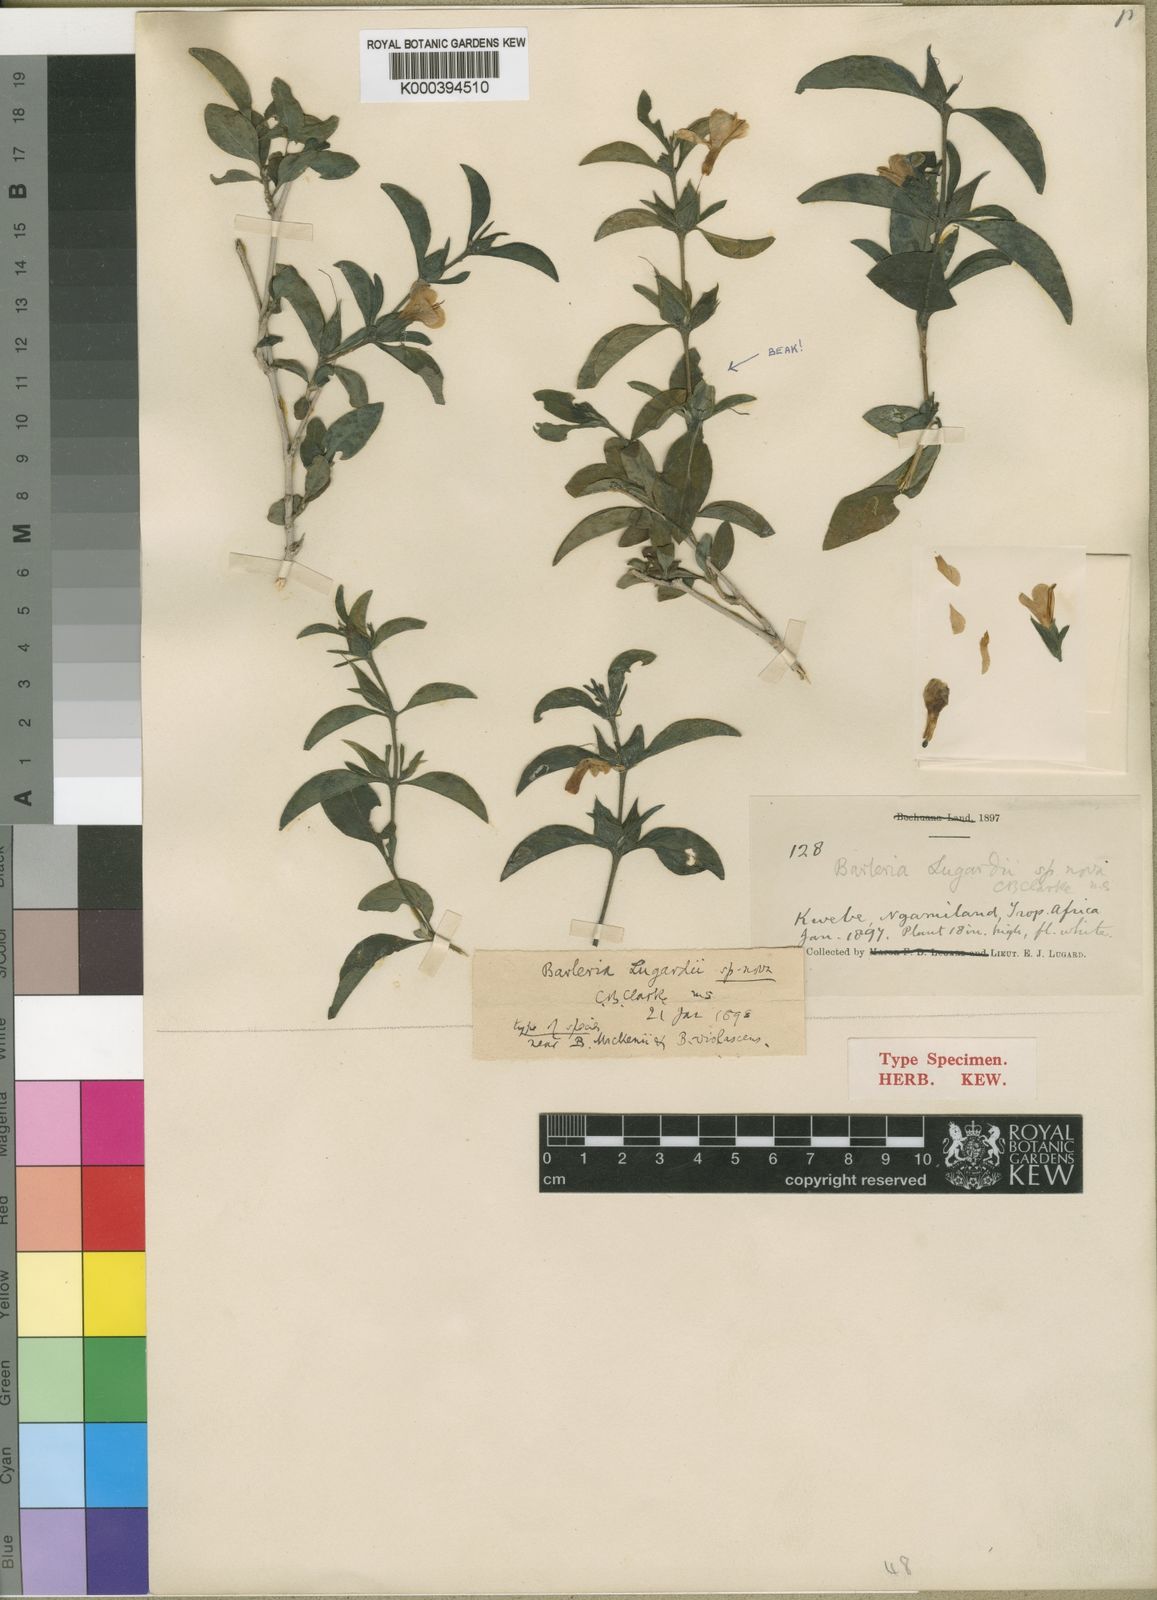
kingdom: Plantae
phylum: Tracheophyta
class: Magnoliopsida
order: Lamiales
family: Acanthaceae
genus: Barleria
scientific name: Barleria lugardii
